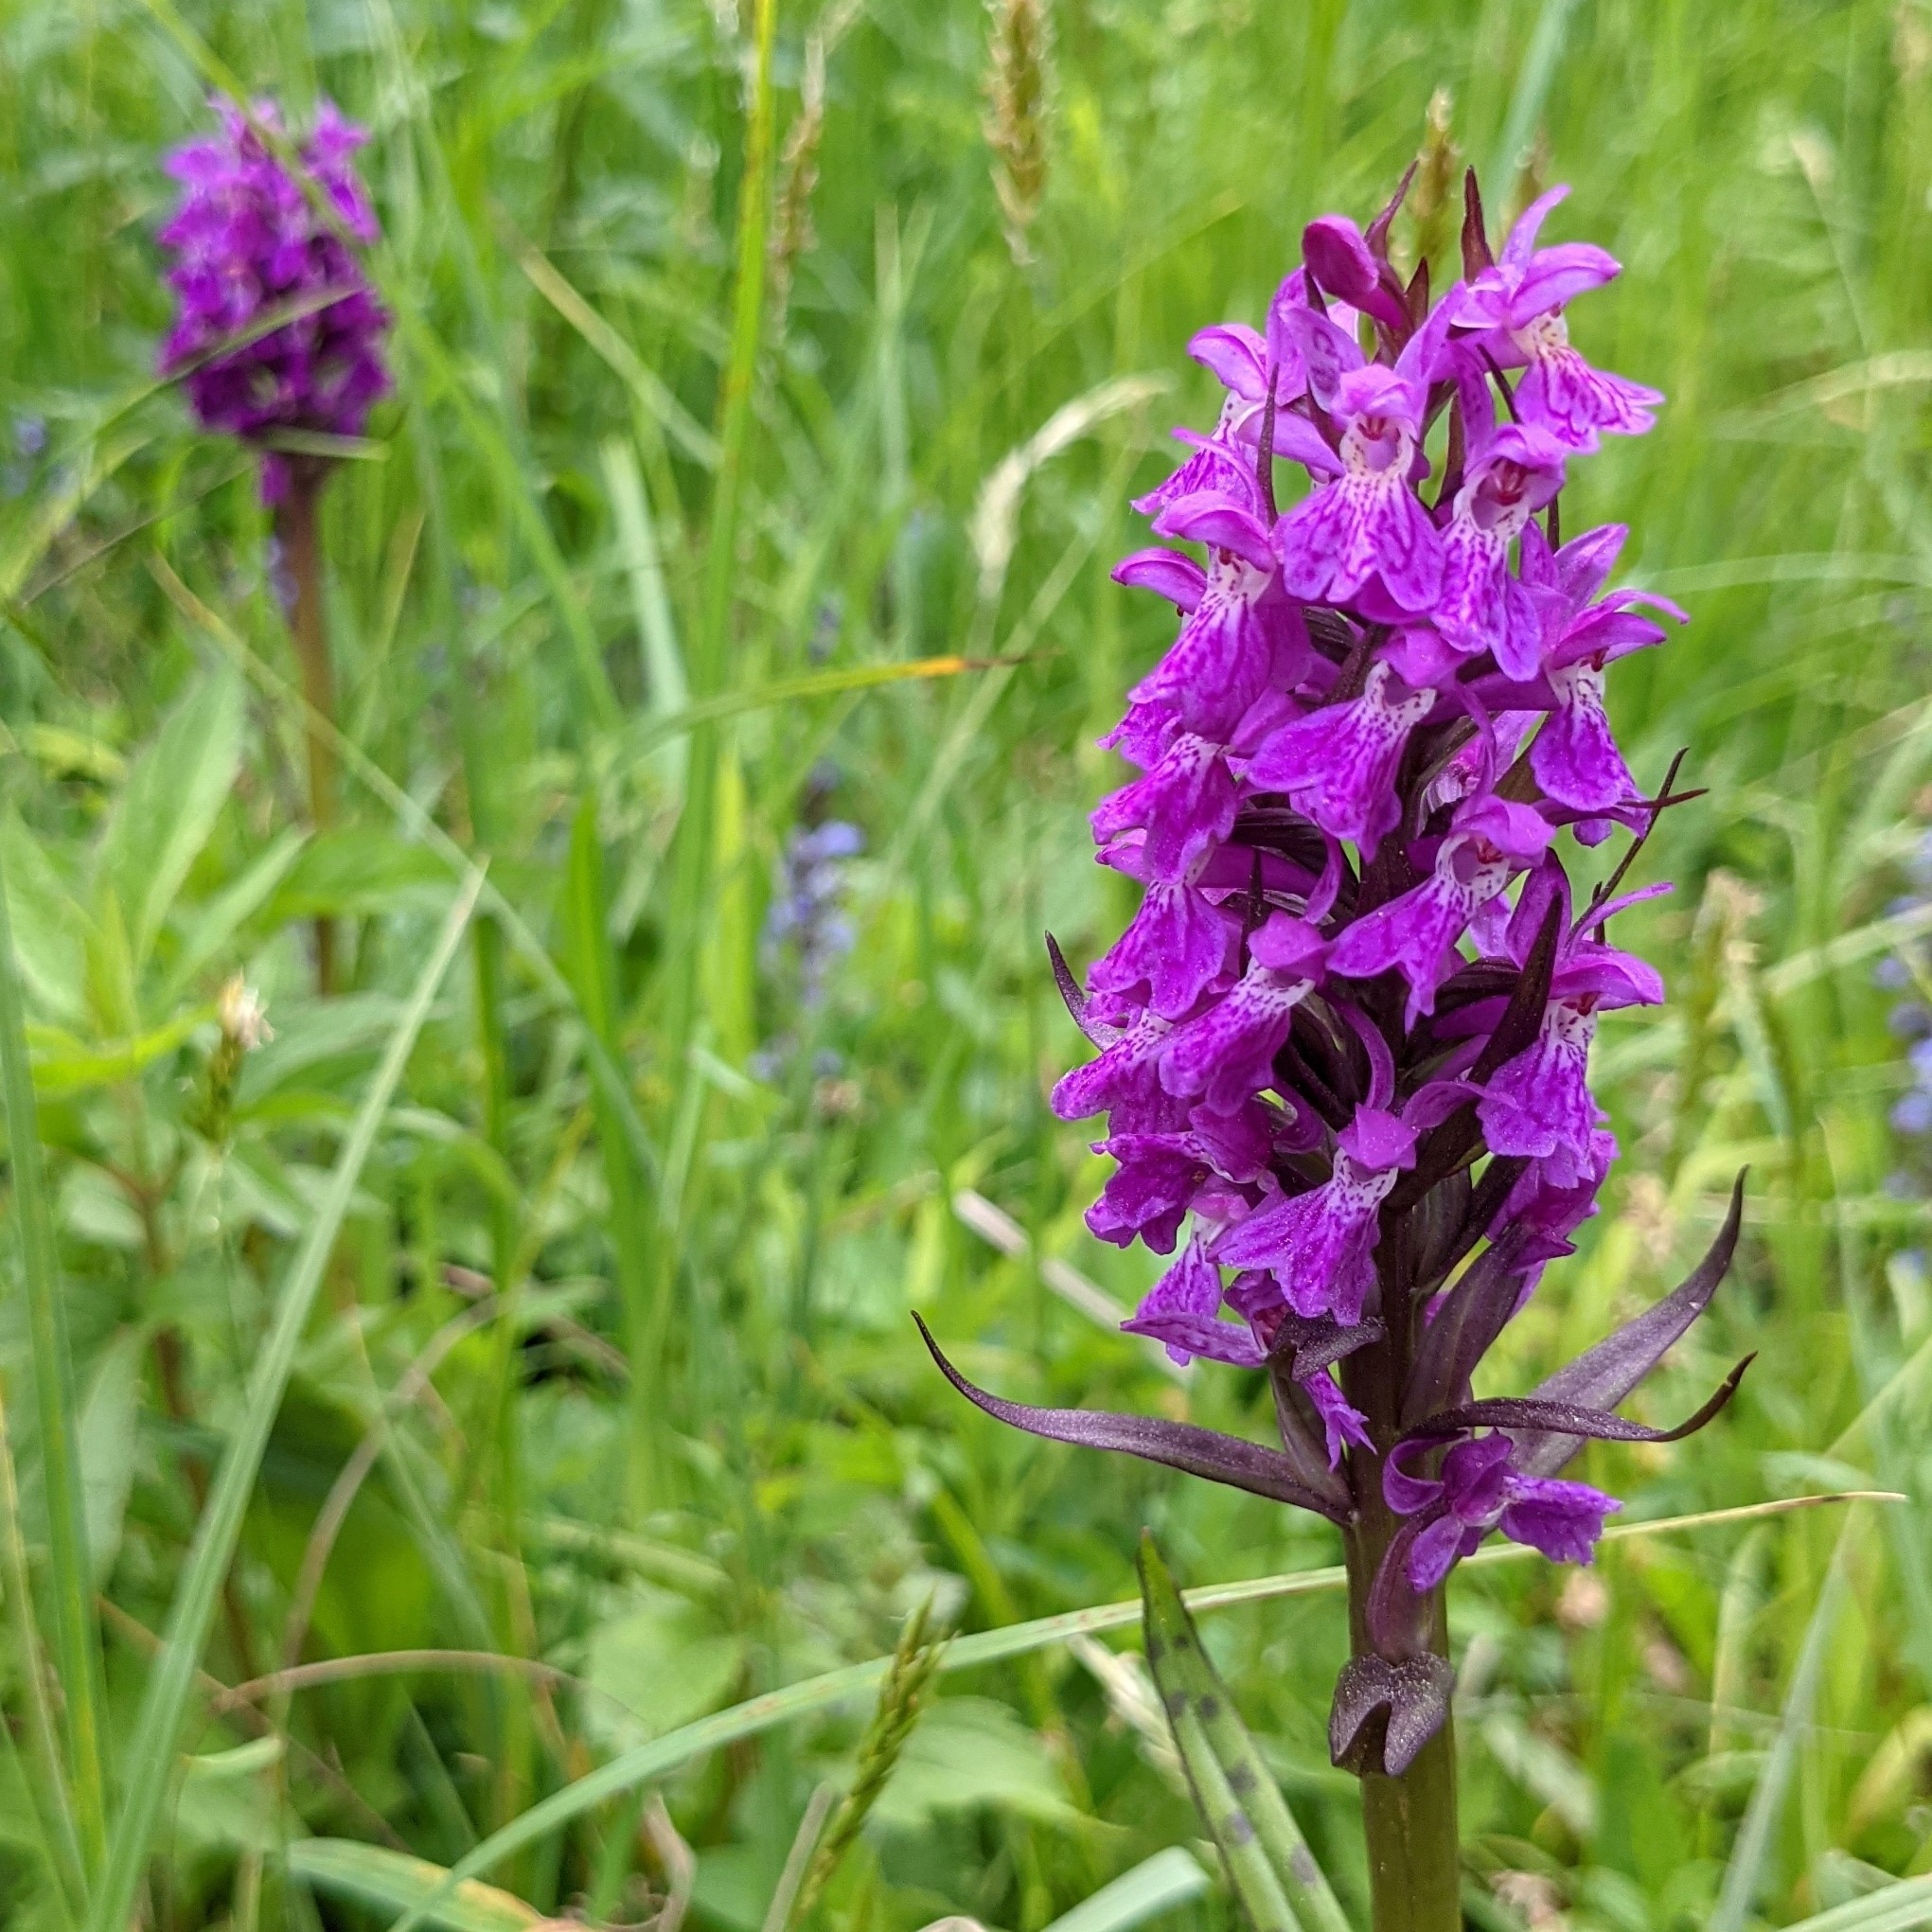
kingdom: Plantae
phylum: Tracheophyta
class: Liliopsida
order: Asparagales
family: Orchidaceae
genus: Dactylorhiza
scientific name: Dactylorhiza majalis
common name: Maj-gøgeurt
